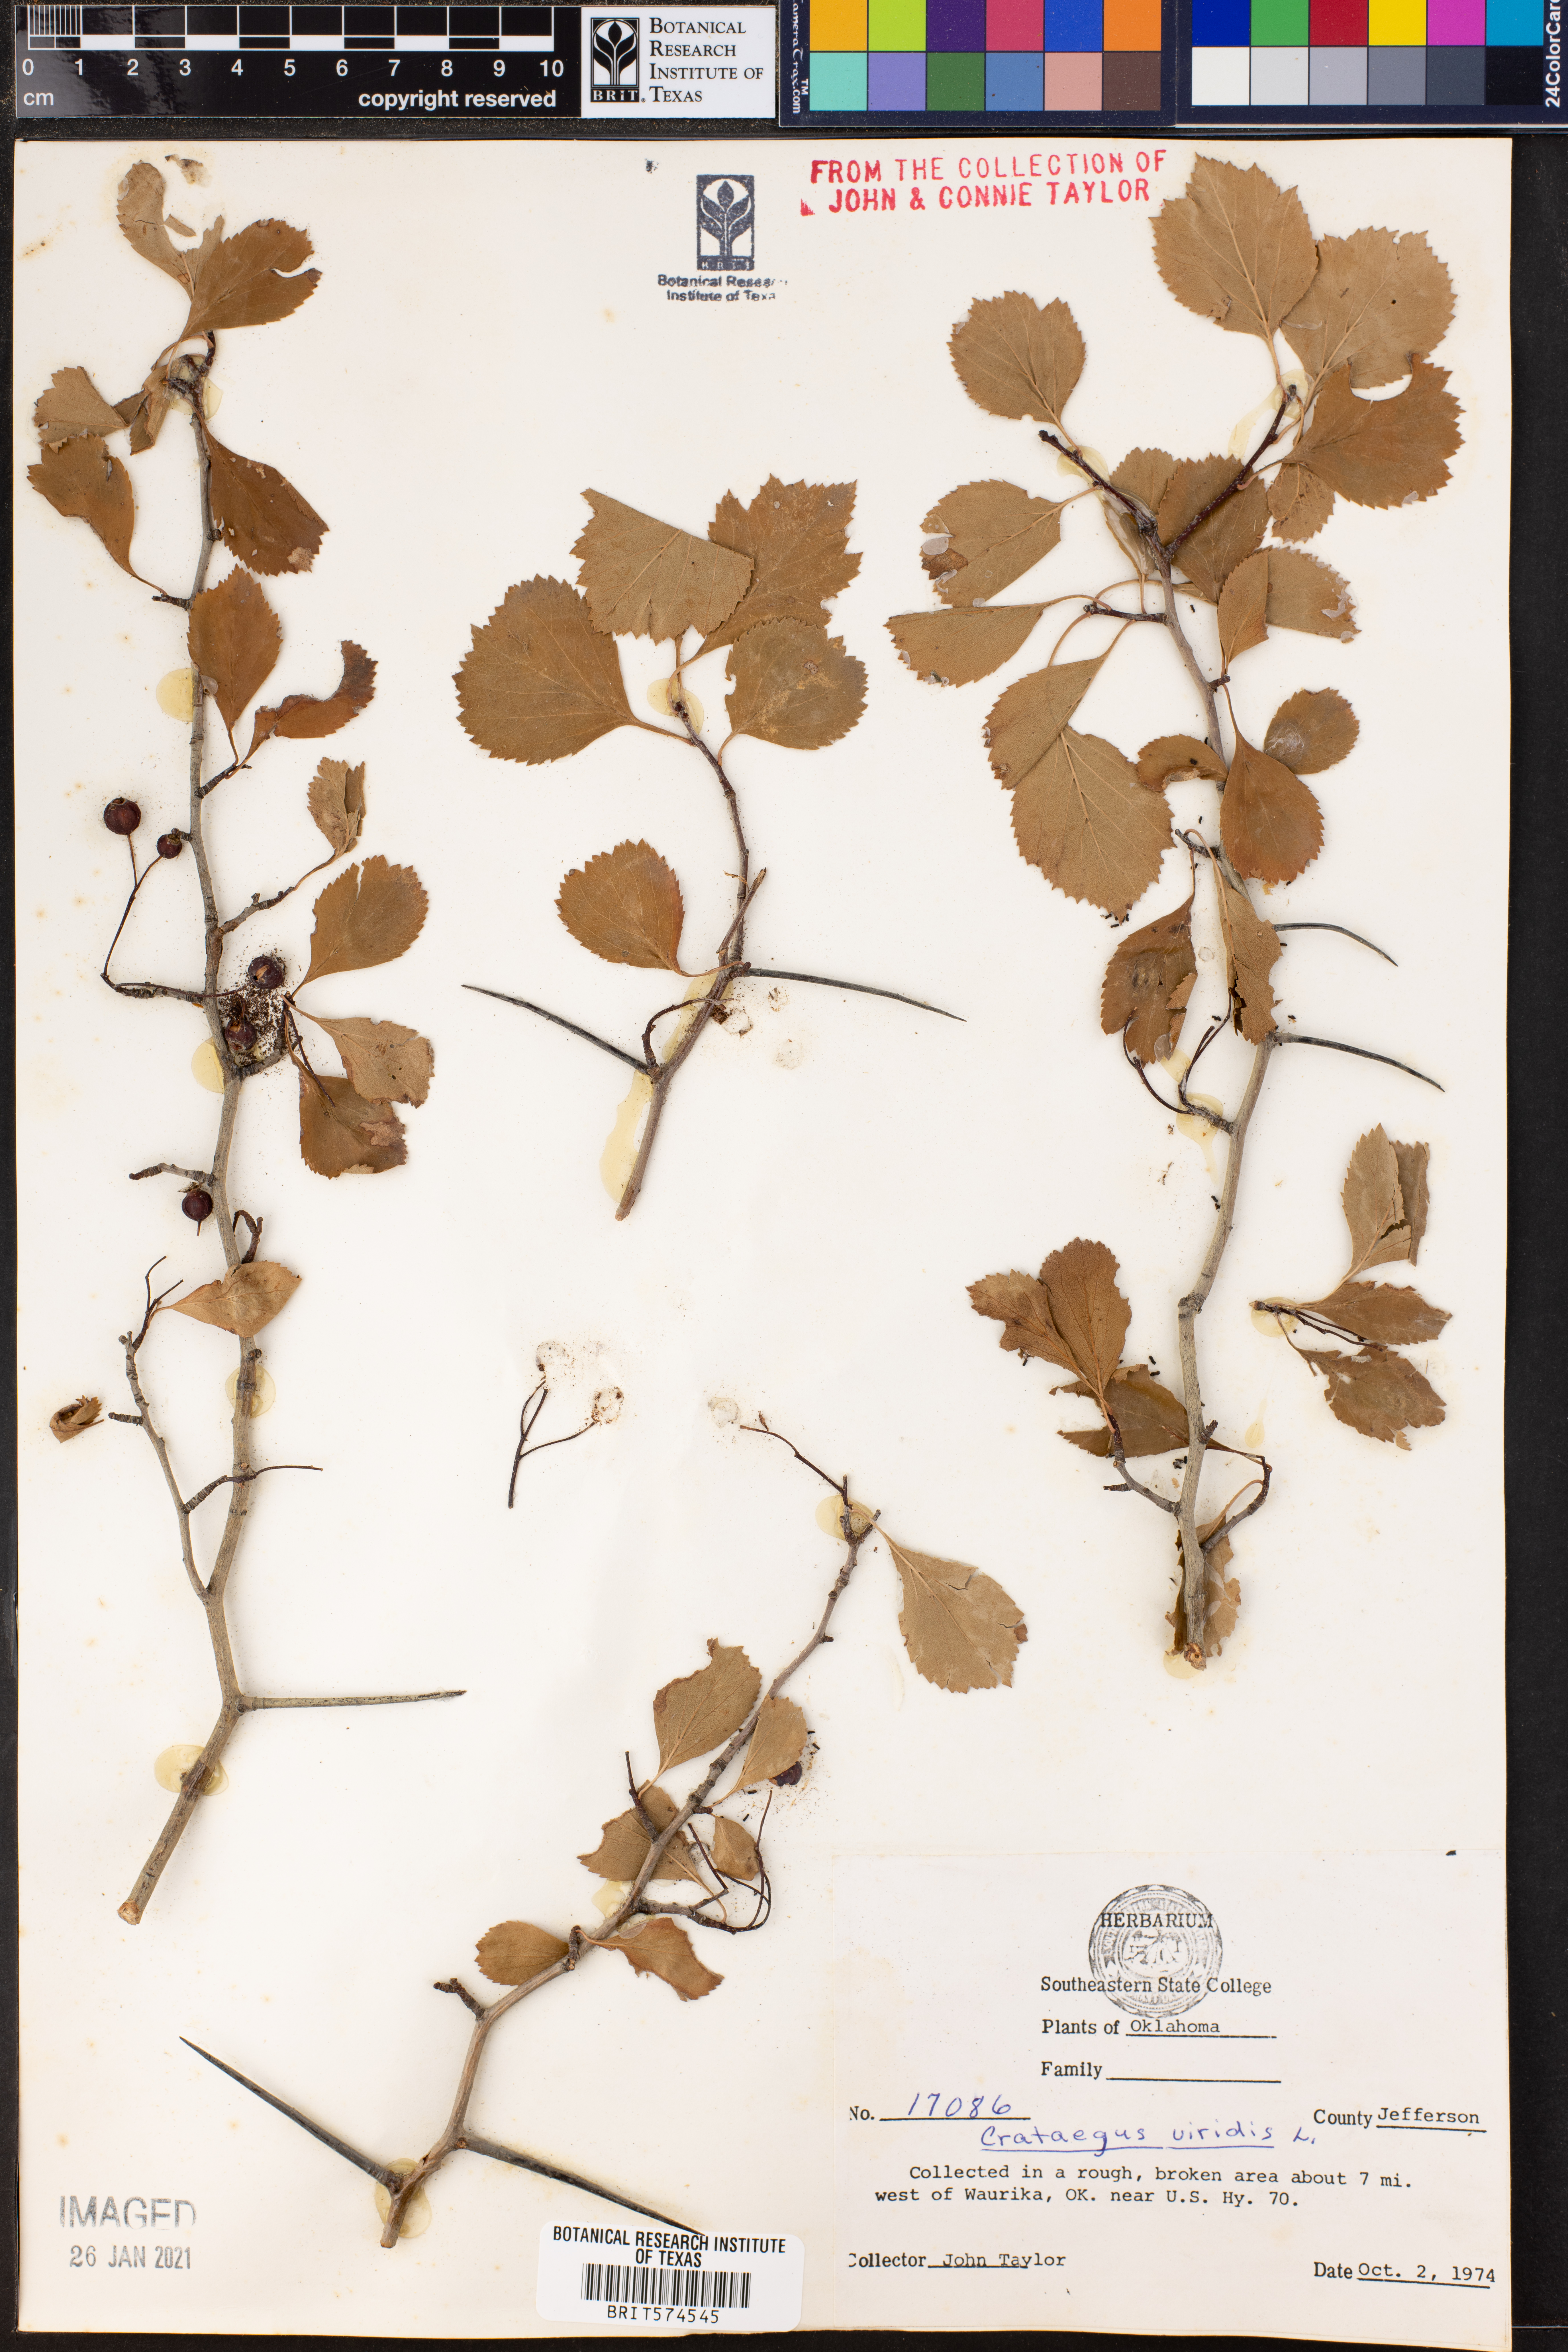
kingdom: Plantae
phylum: Tracheophyta
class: Magnoliopsida
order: Rosales
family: Rosaceae
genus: Crataegus
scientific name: Crataegus viridis
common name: Southernthorn
